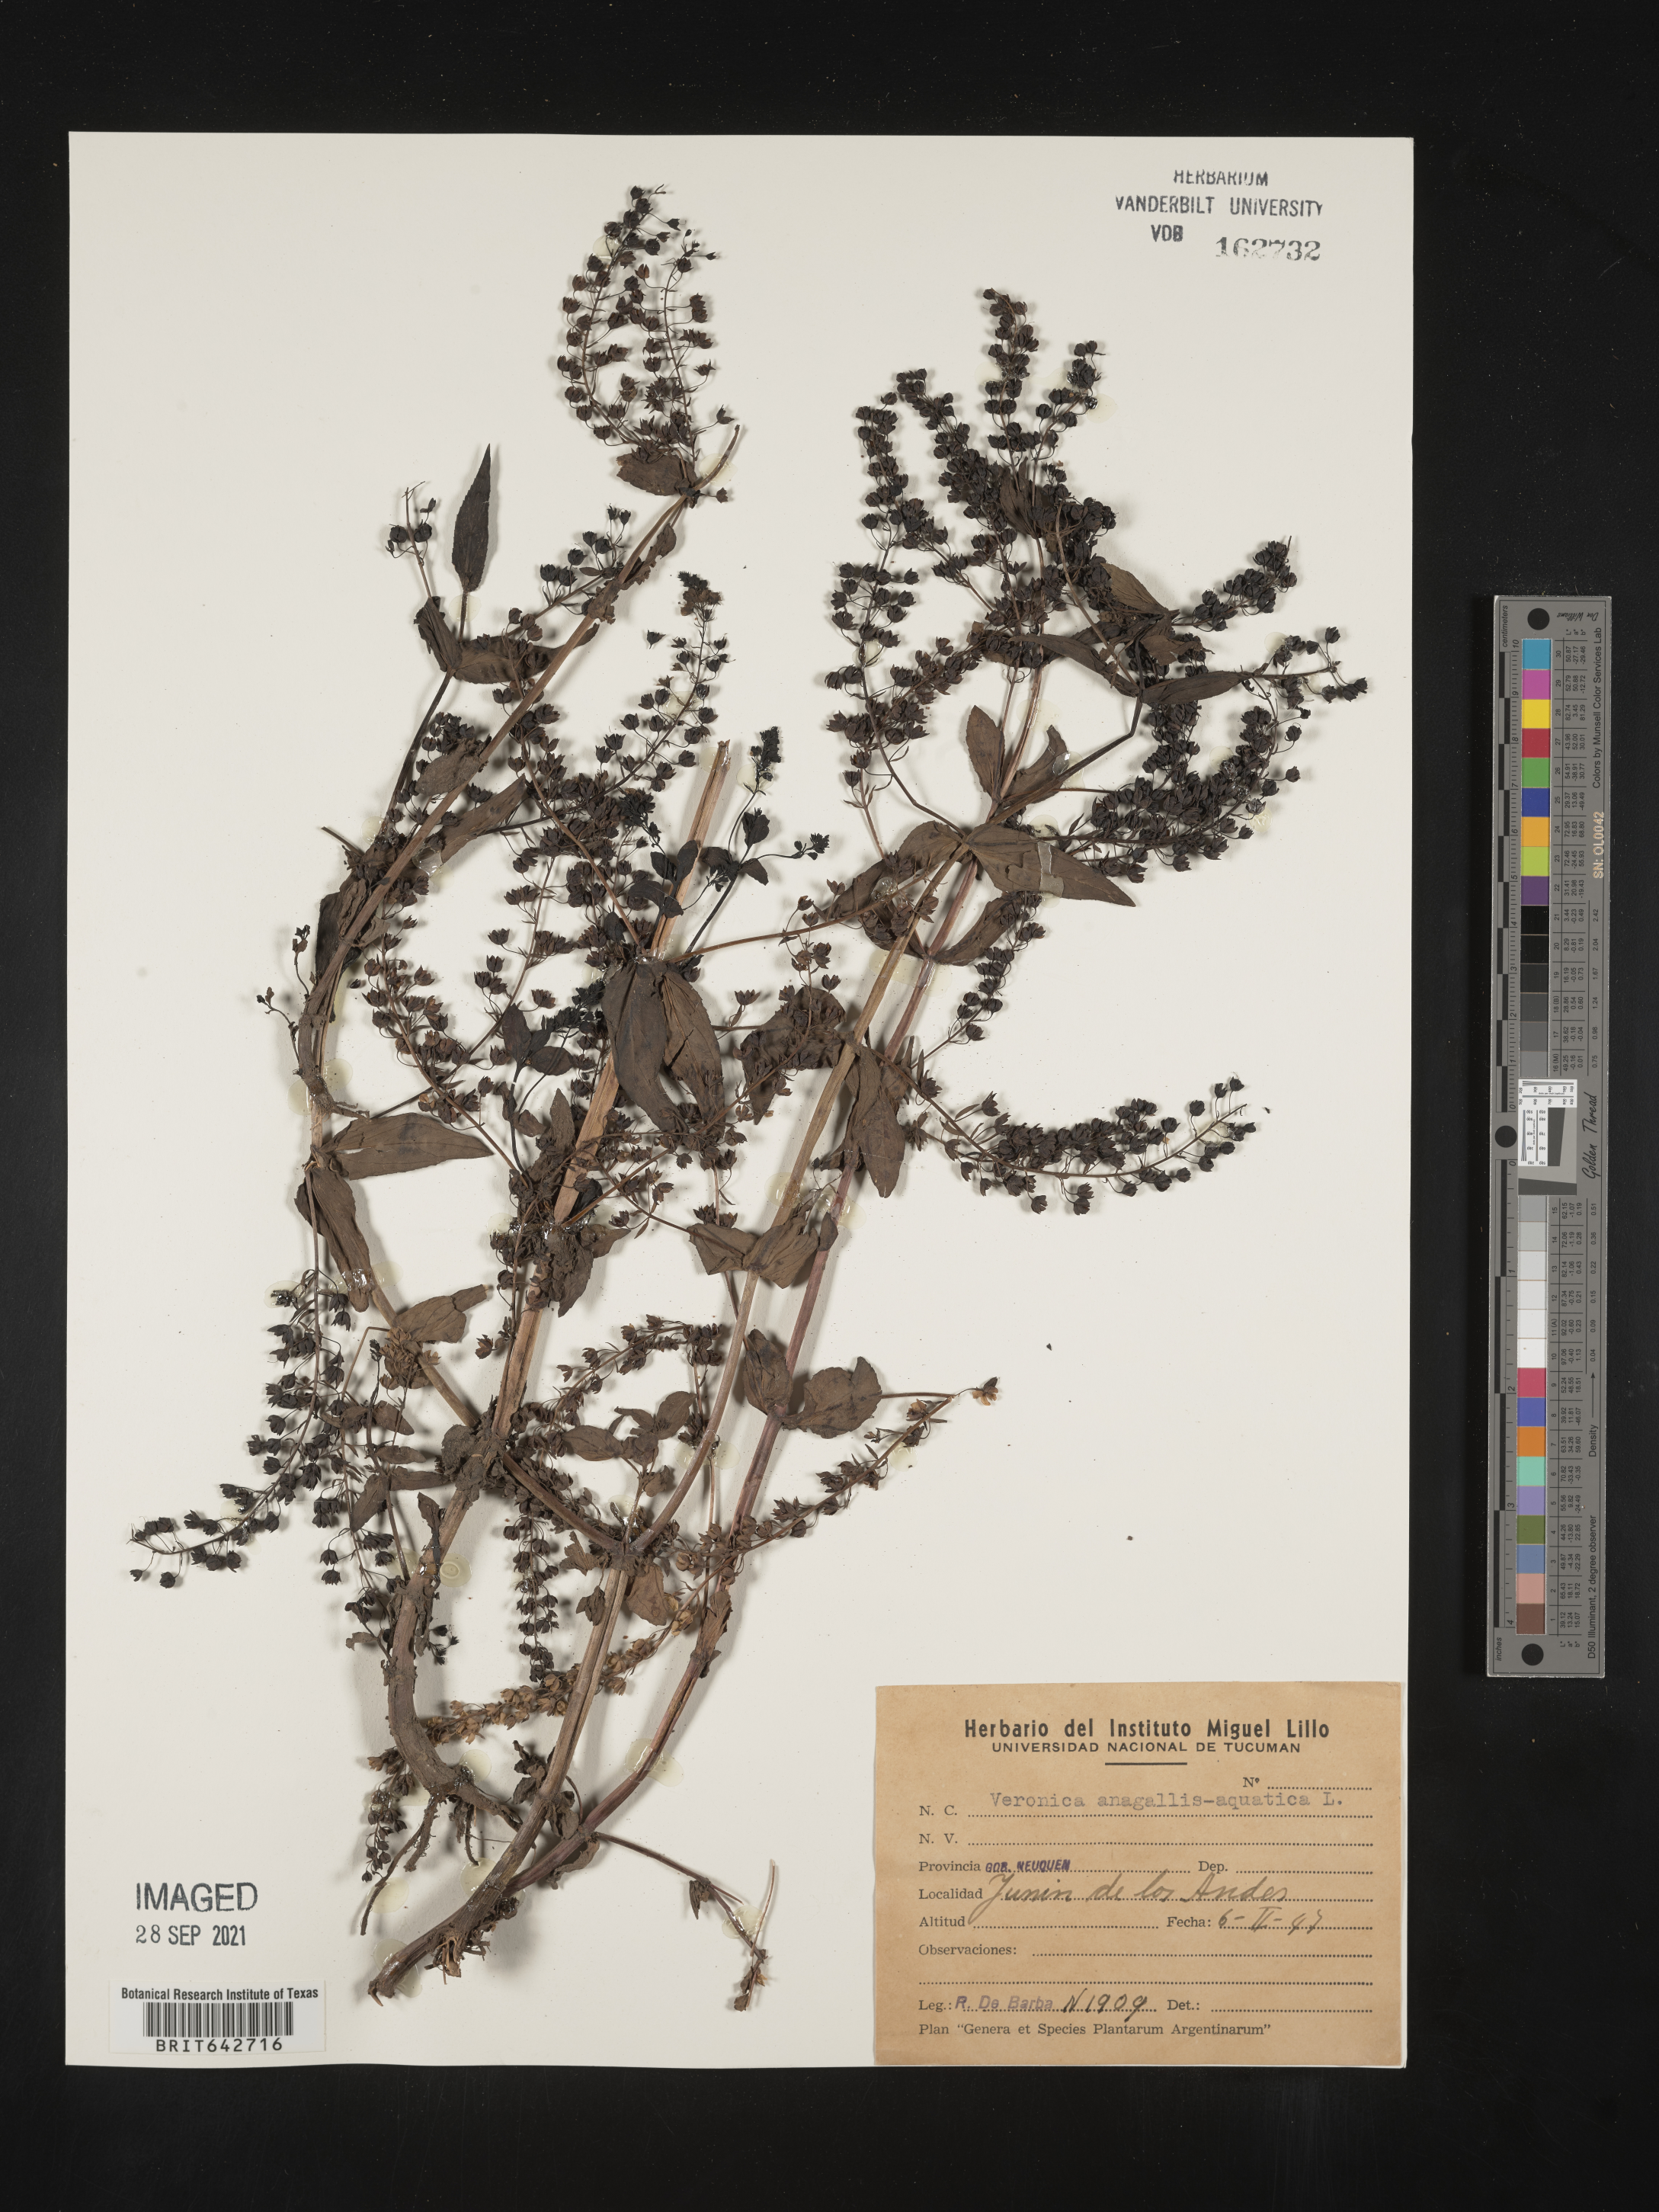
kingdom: Plantae
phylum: Tracheophyta
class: Magnoliopsida
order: Lamiales
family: Plantaginaceae
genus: Veronica
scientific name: Veronica
